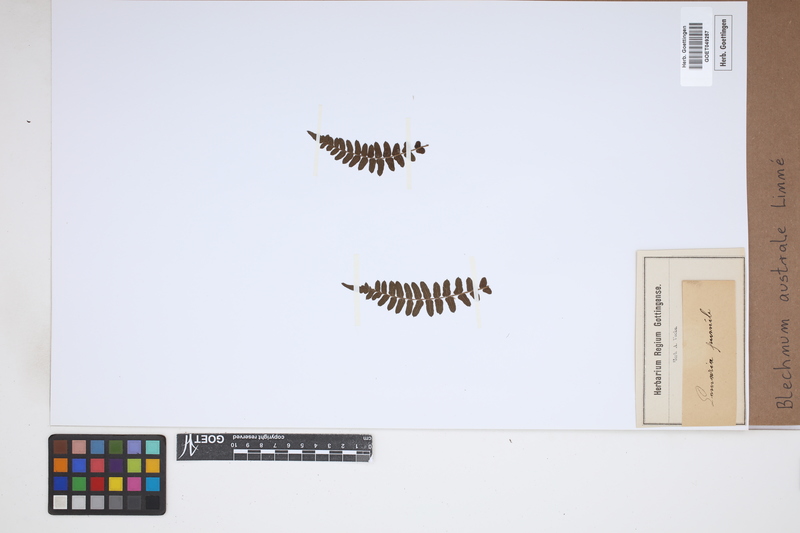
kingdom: Plantae
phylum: Tracheophyta
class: Polypodiopsida
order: Polypodiales
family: Blechnaceae
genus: Blechnum
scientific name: Blechnum australe
